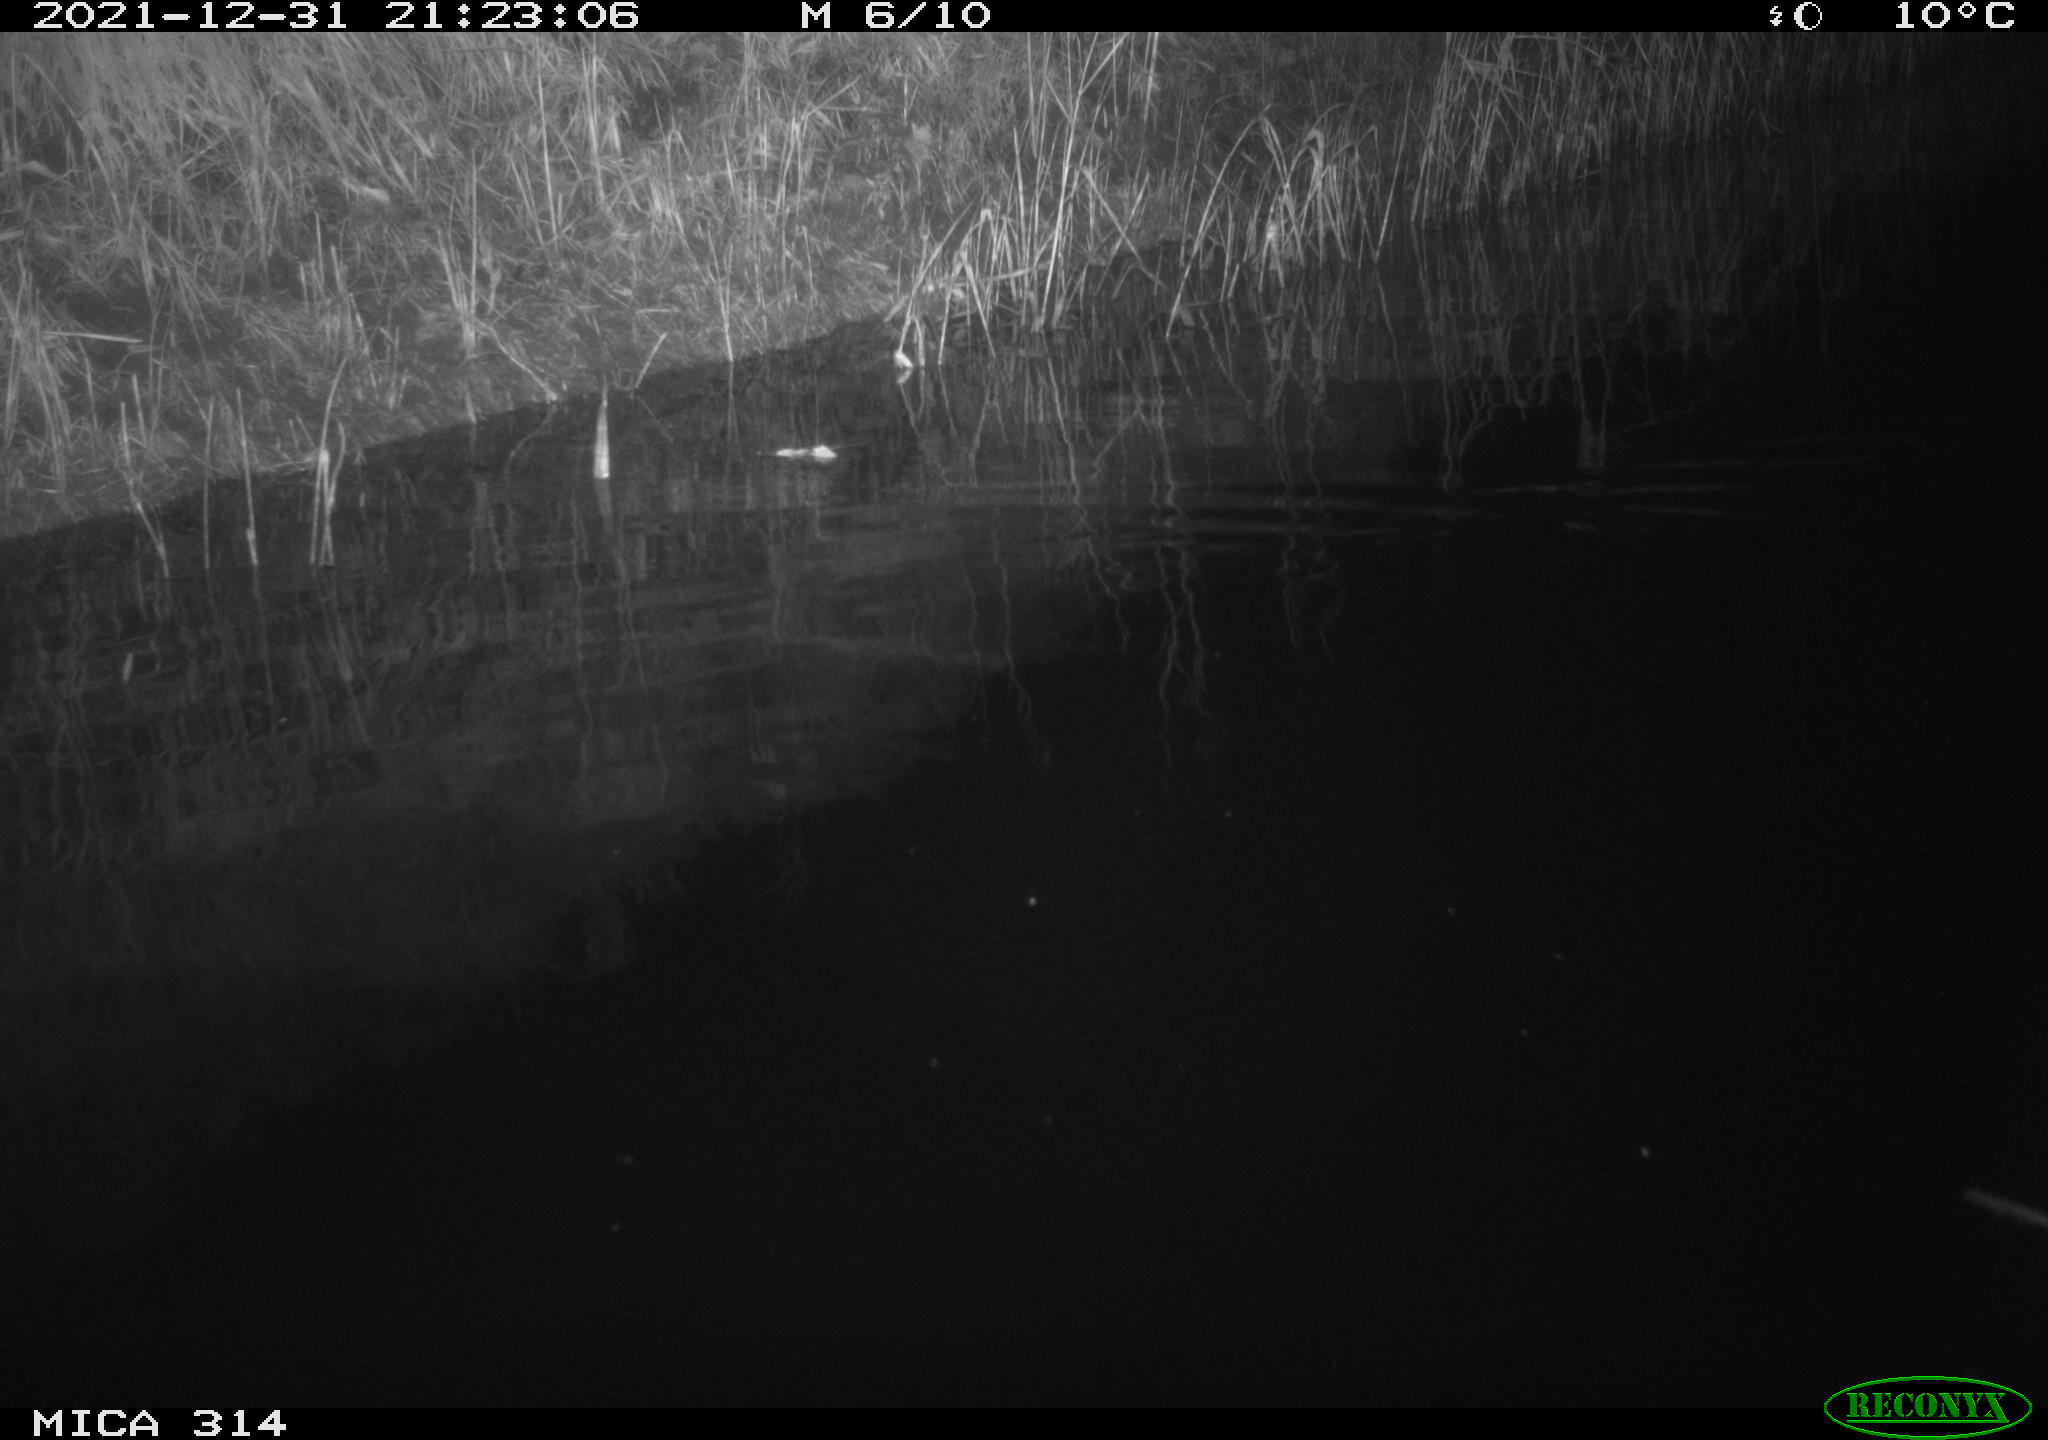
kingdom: Animalia
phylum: Chordata
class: Mammalia
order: Rodentia
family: Muridae
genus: Rattus
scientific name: Rattus norvegicus
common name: Brown rat
